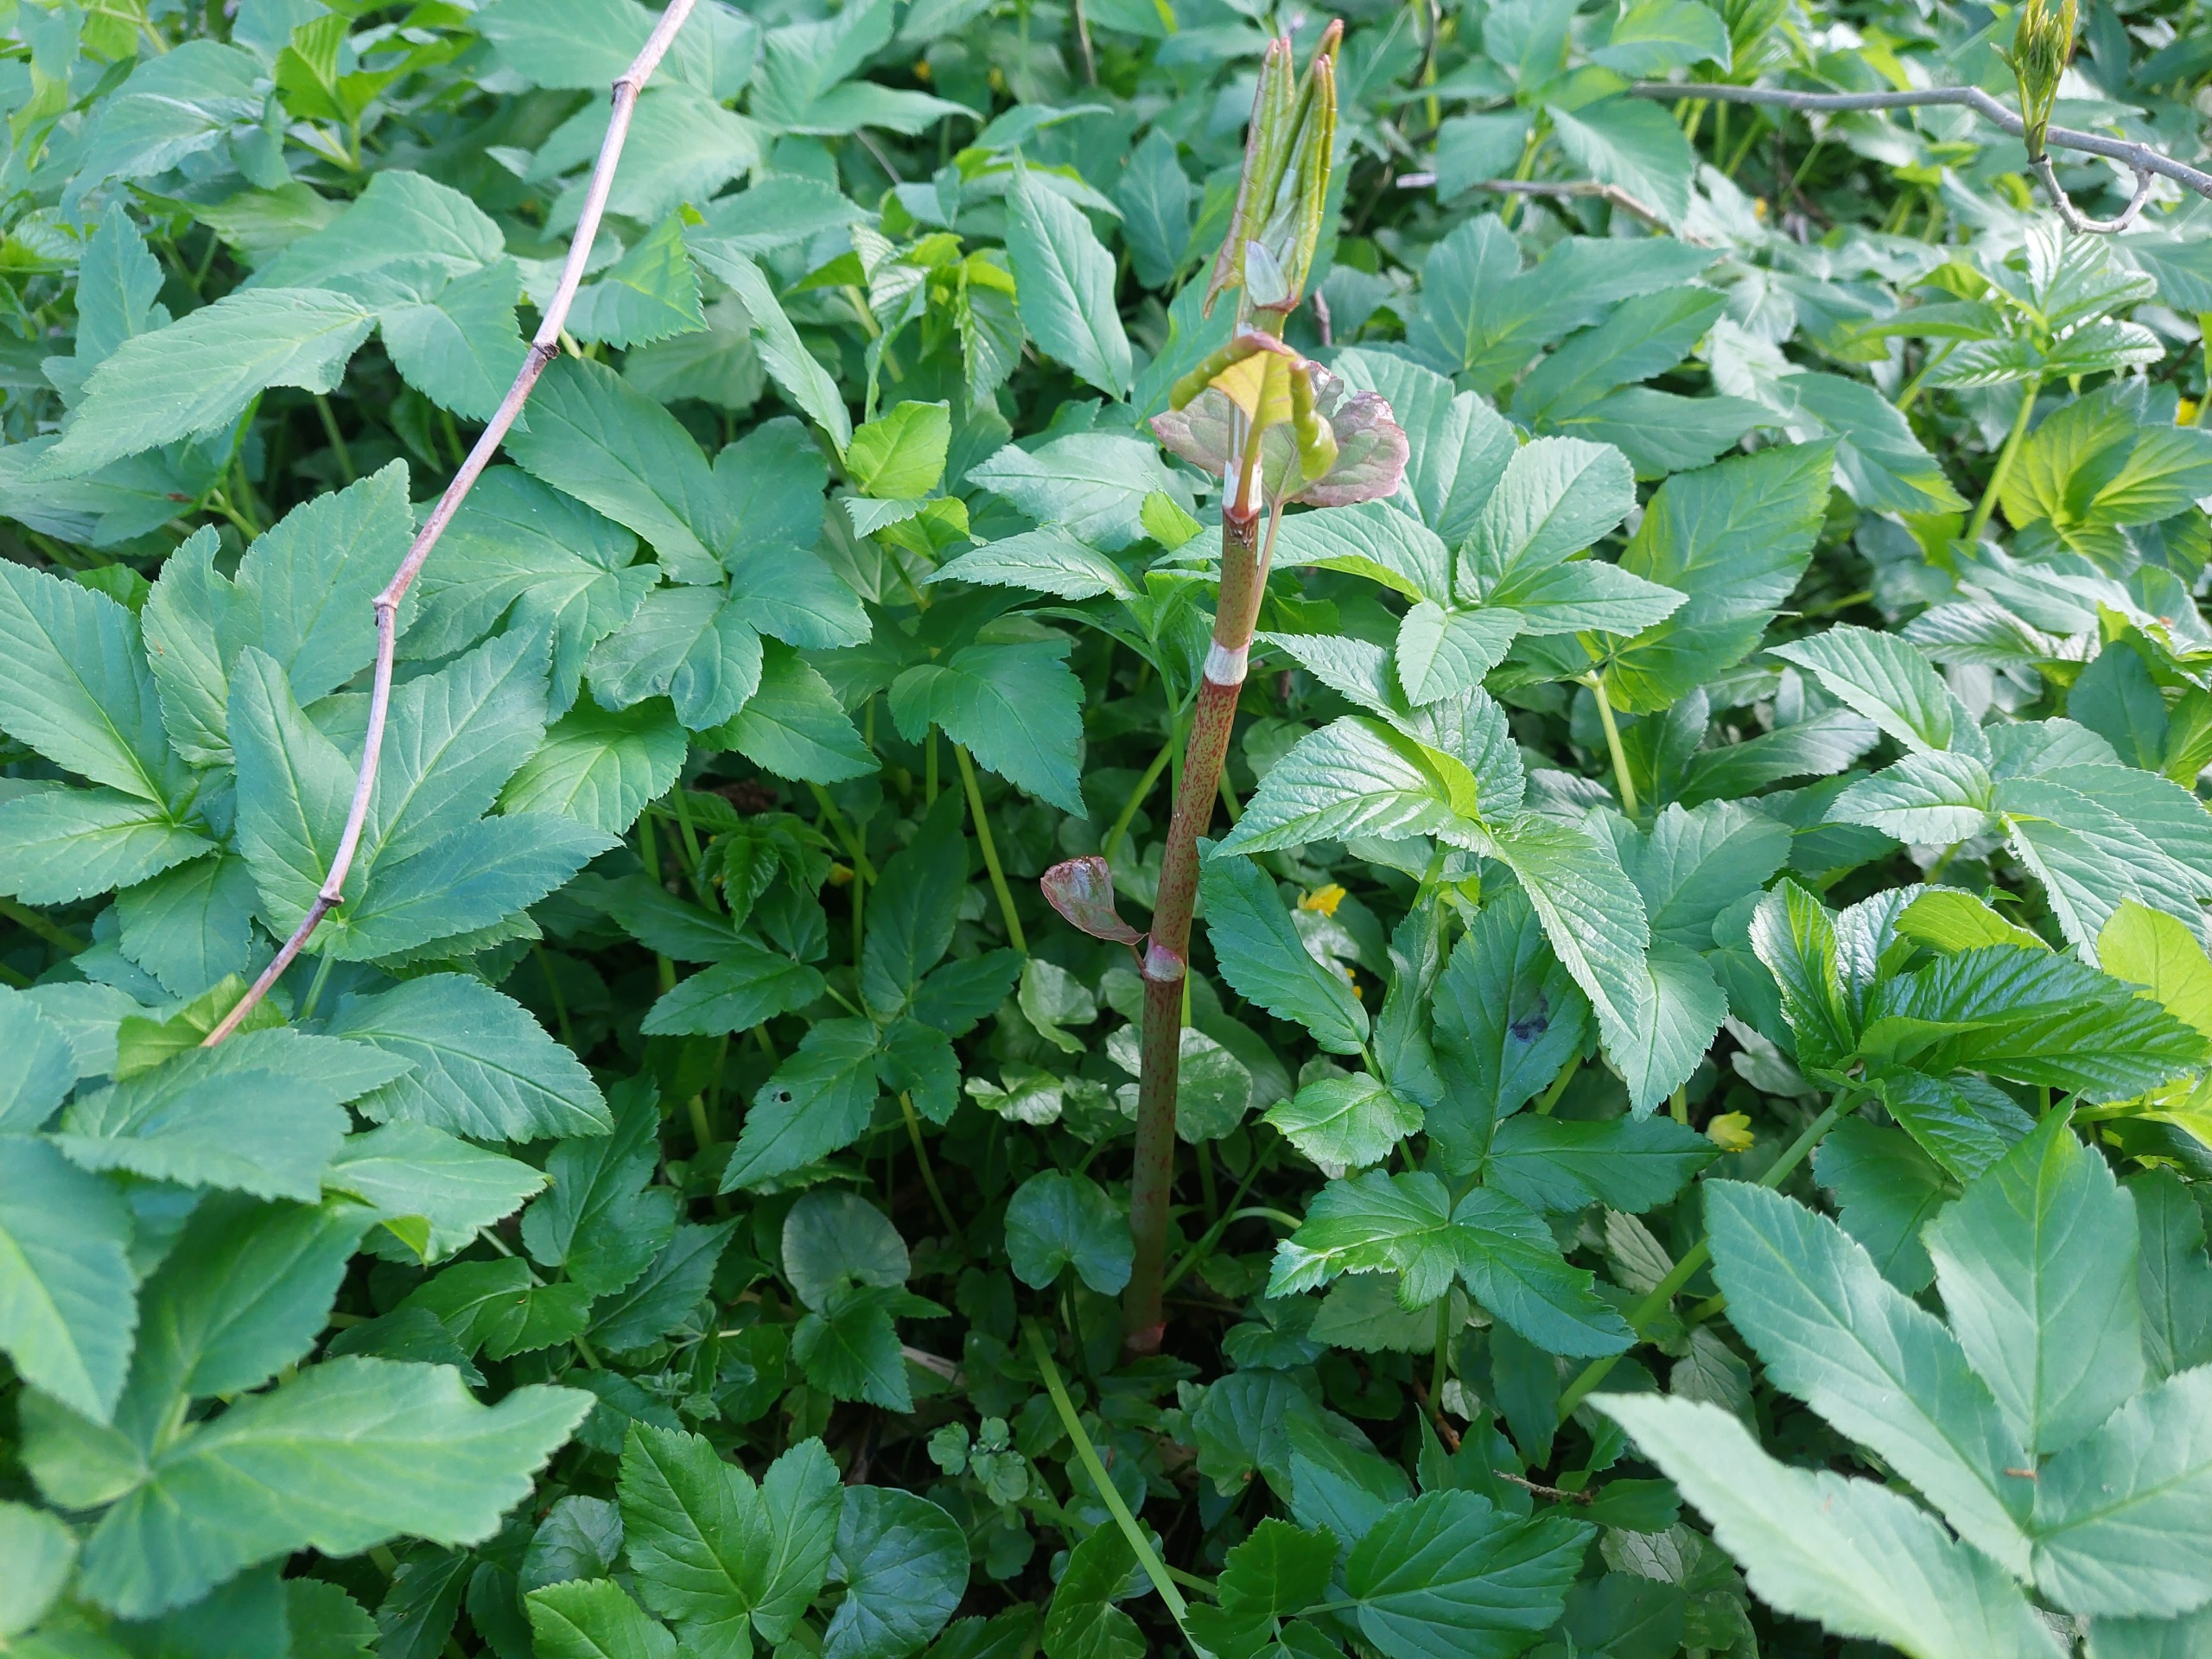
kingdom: Plantae
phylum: Tracheophyta
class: Magnoliopsida
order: Caryophyllales
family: Polygonaceae
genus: Reynoutria
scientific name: Reynoutria
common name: Pileurt (Reynoutria-slægten)
